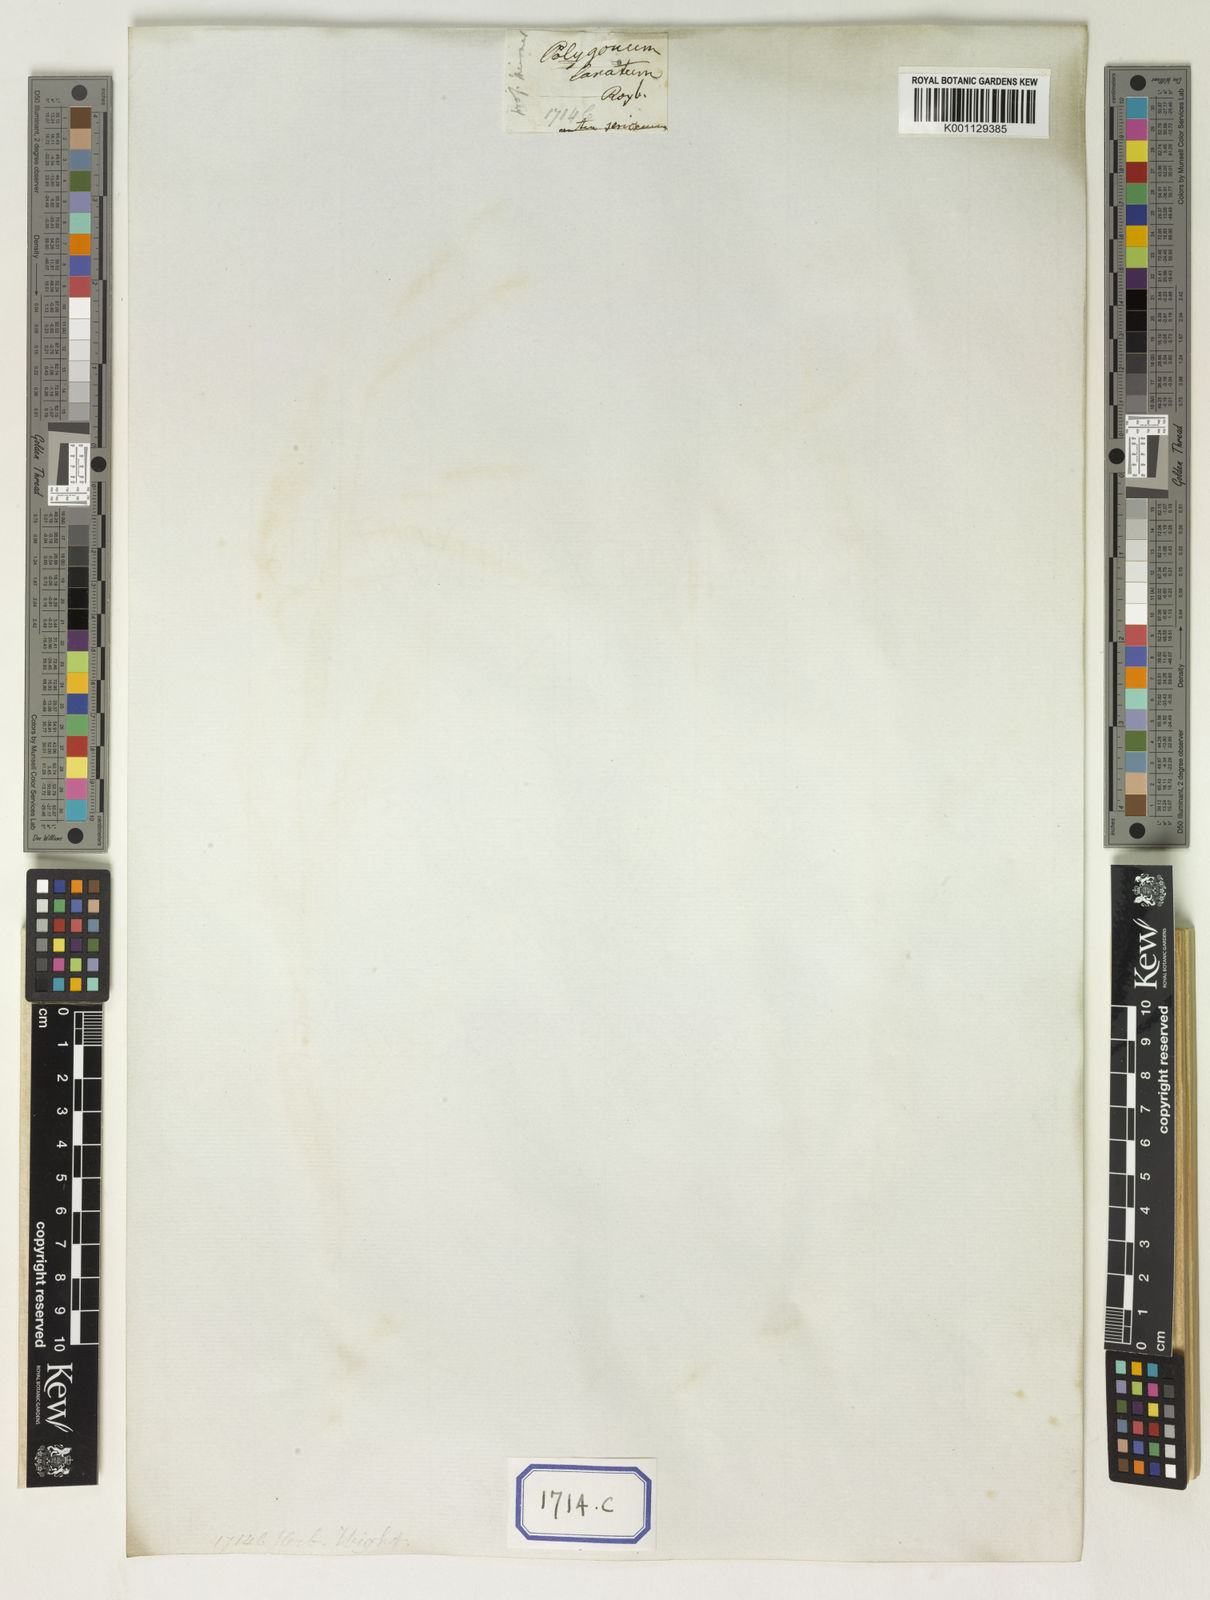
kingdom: Plantae
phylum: Tracheophyta
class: Magnoliopsida
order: Caryophyllales
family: Polygonaceae
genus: Persicaria
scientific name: Persicaria lanigera
